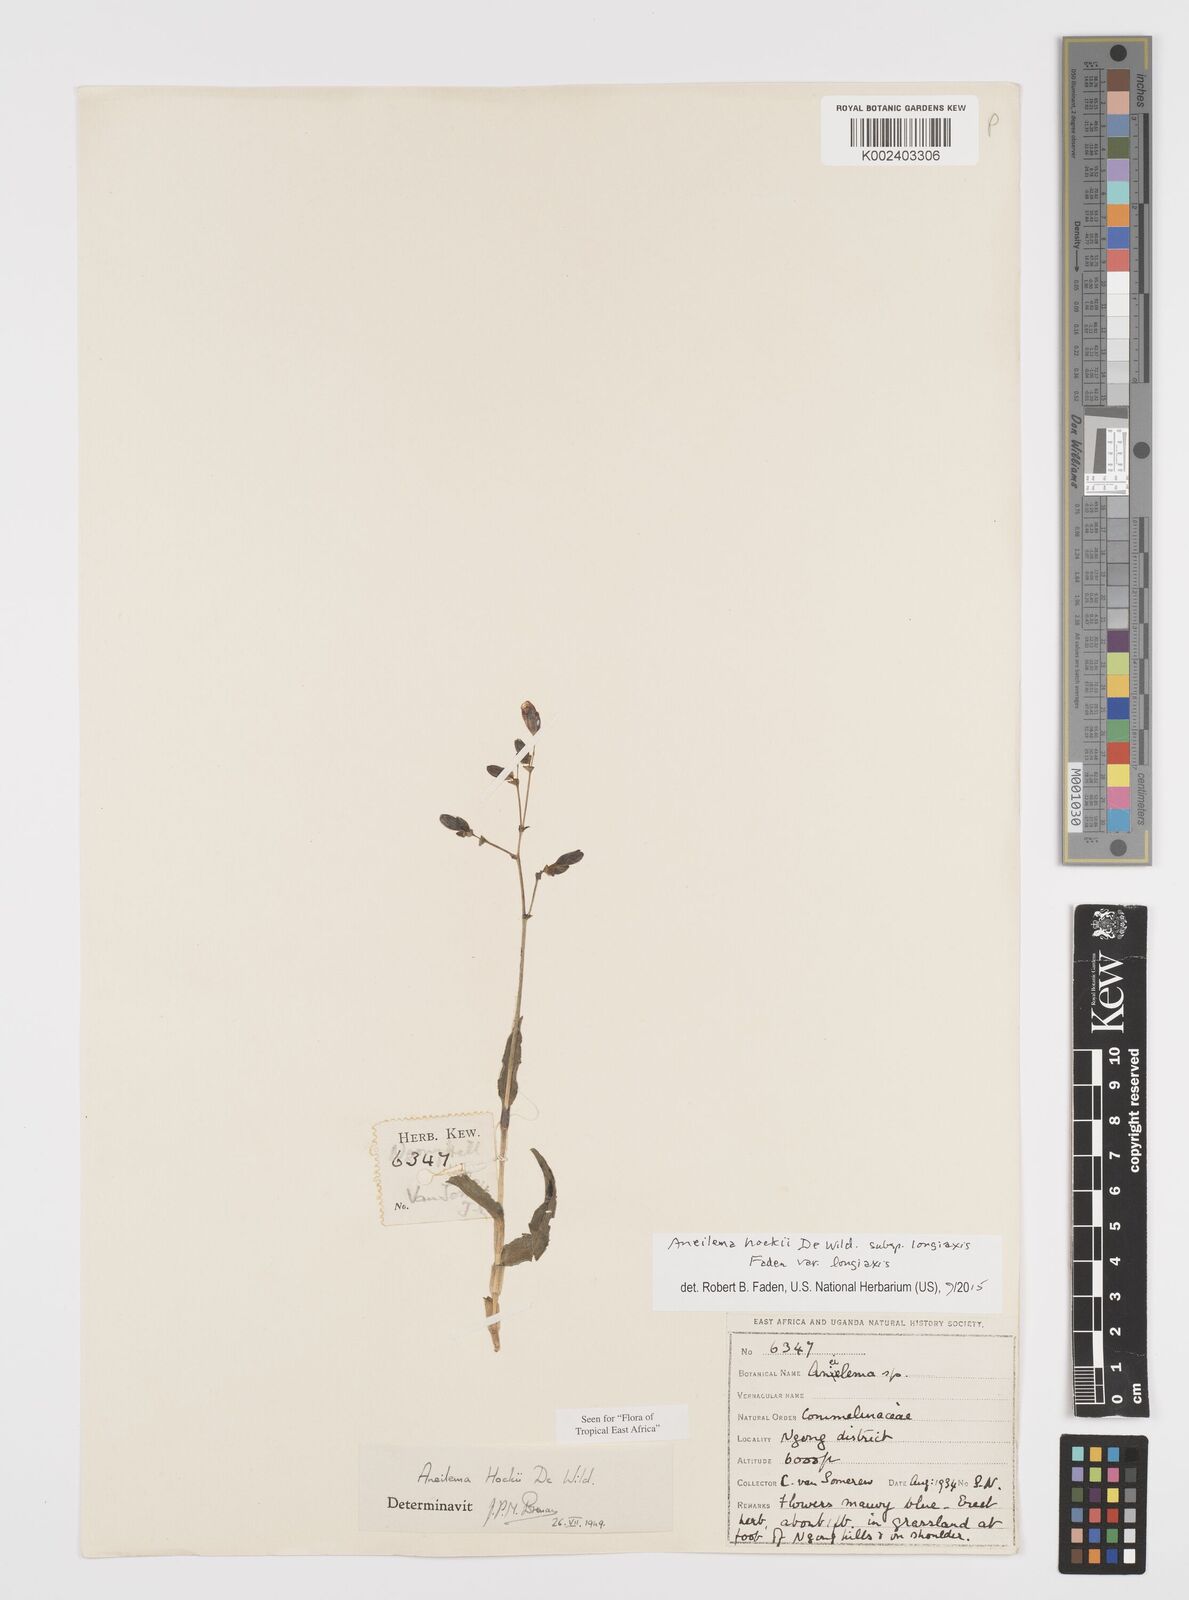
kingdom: Plantae
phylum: Tracheophyta
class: Liliopsida
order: Commelinales
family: Commelinaceae
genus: Aneilema
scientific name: Aneilema hockii
